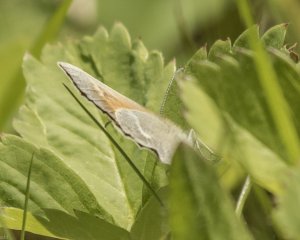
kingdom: Animalia
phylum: Arthropoda
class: Insecta
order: Lepidoptera
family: Nymphalidae
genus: Coenonympha
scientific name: Coenonympha tullia
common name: Large Heath
